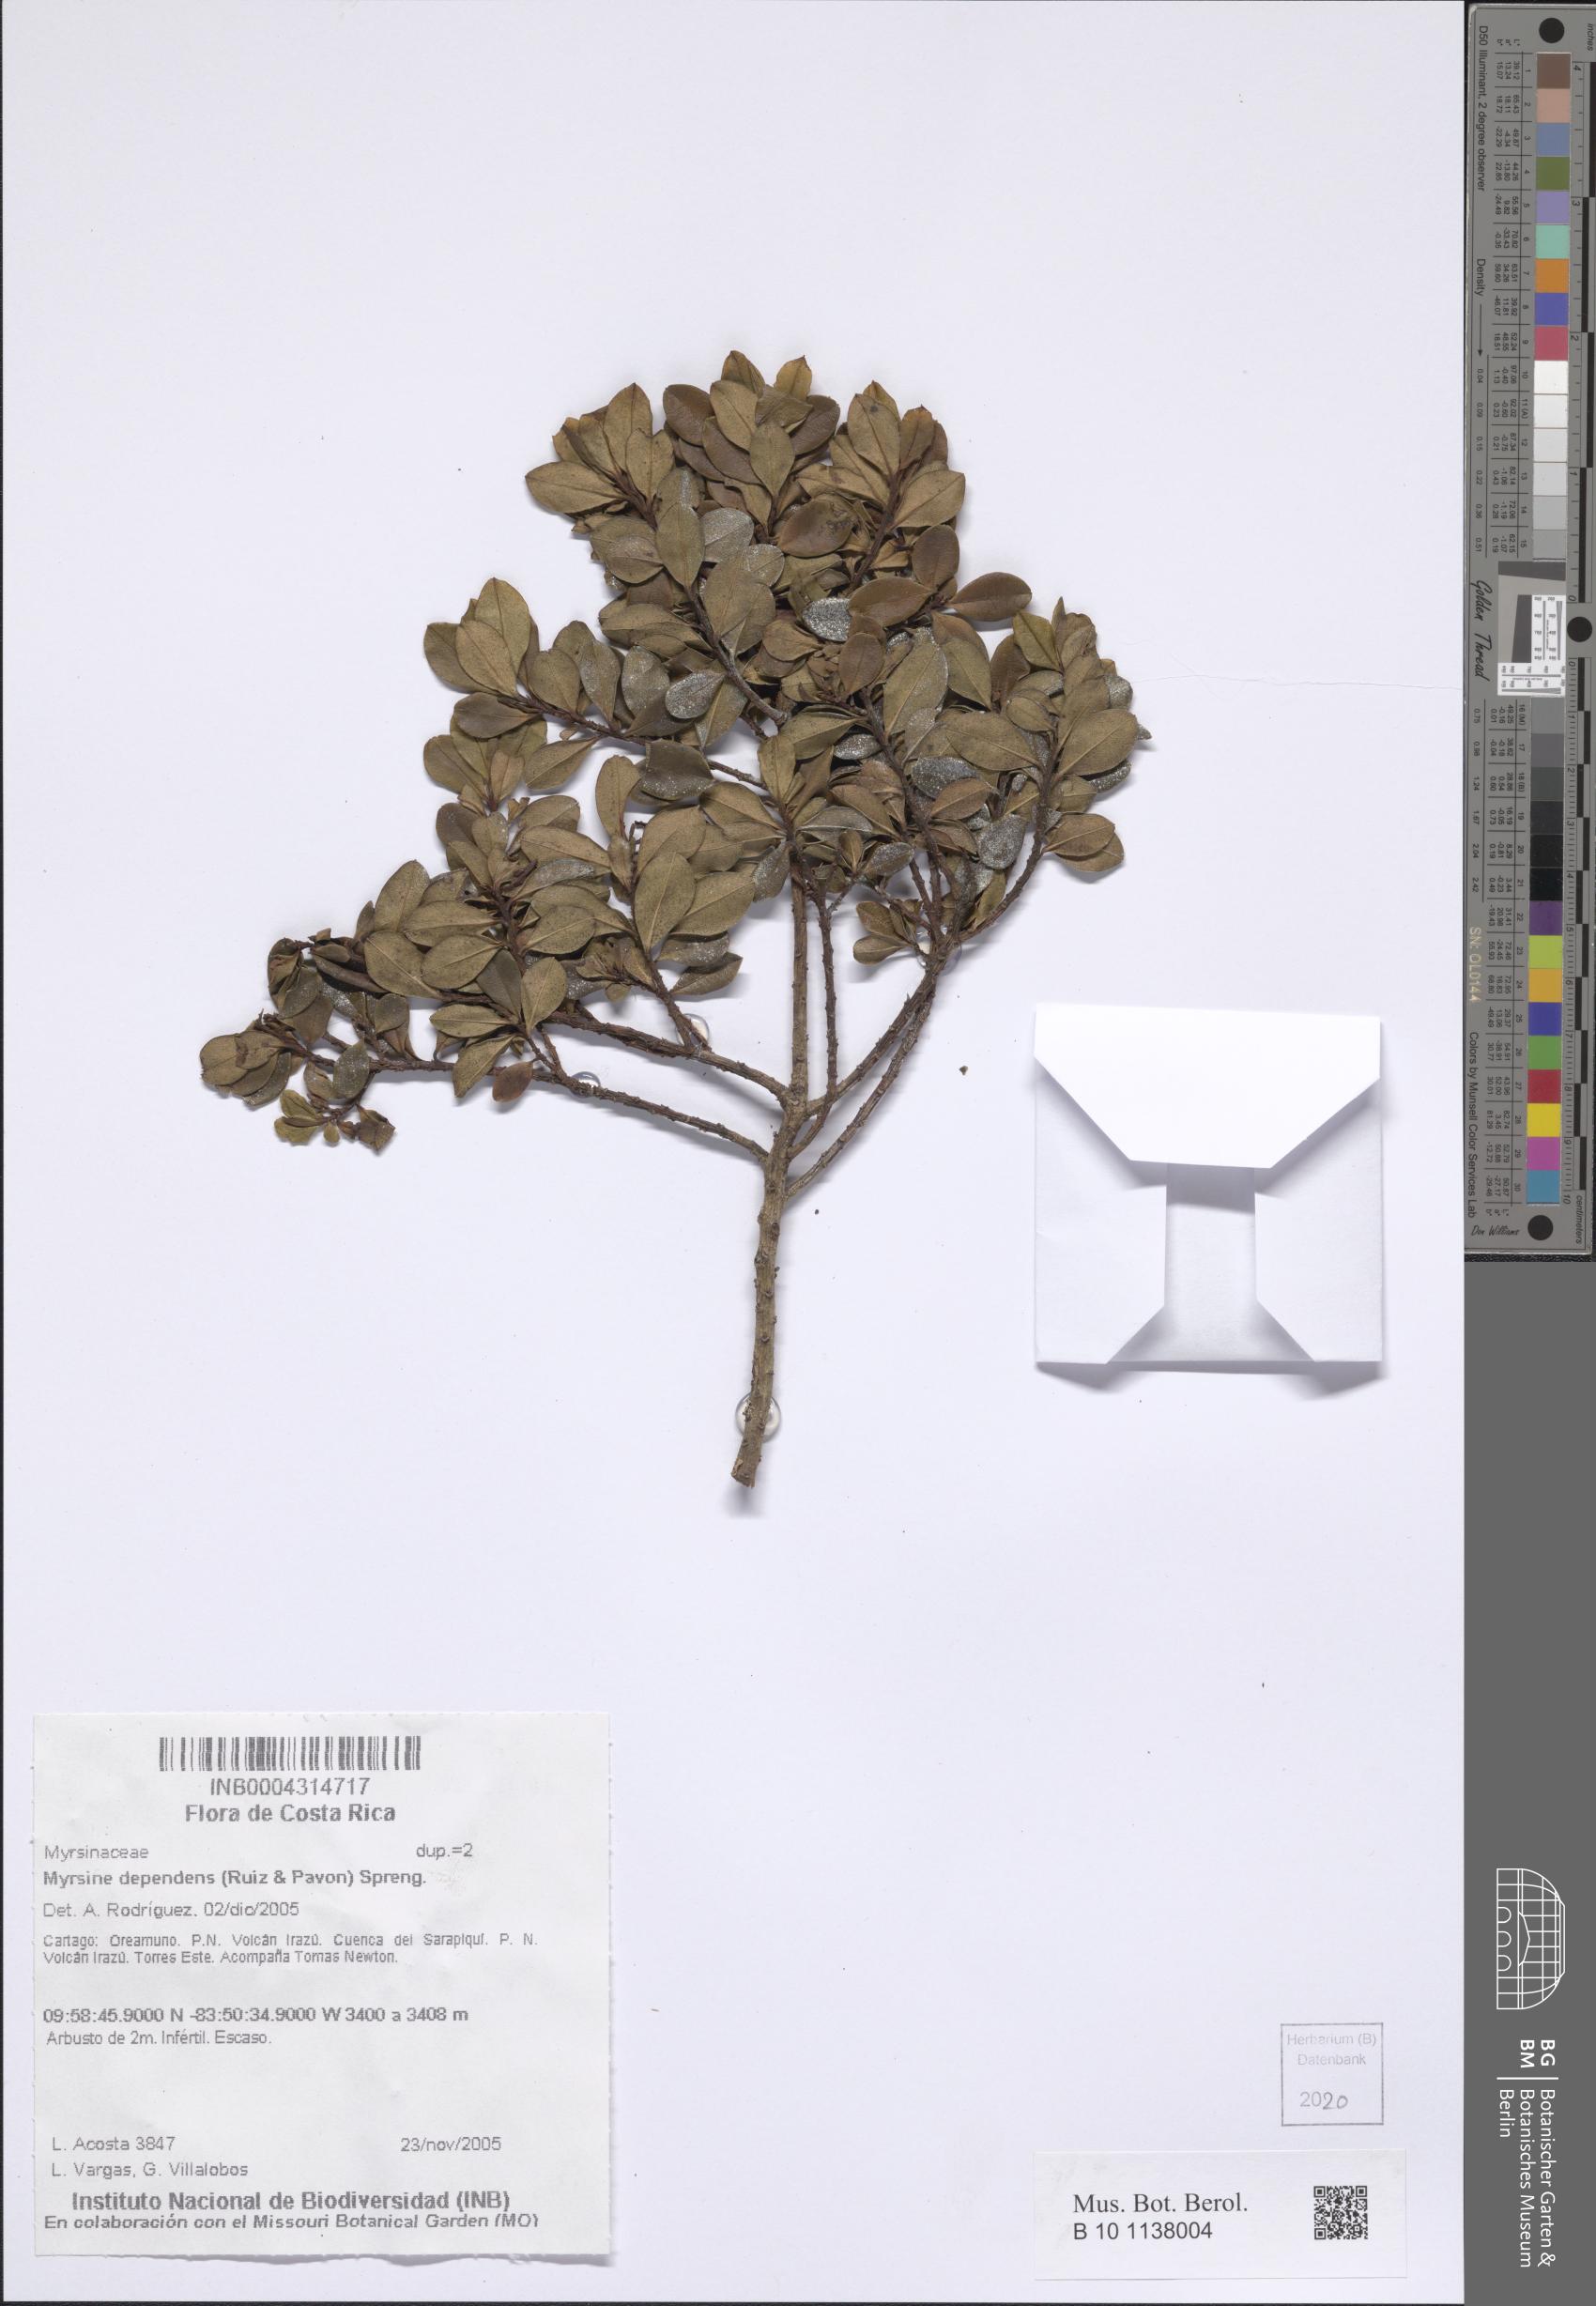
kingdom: Plantae
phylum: Tracheophyta
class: Magnoliopsida
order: Ericales
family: Primulaceae
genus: Myrsine
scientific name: Myrsine dependens
